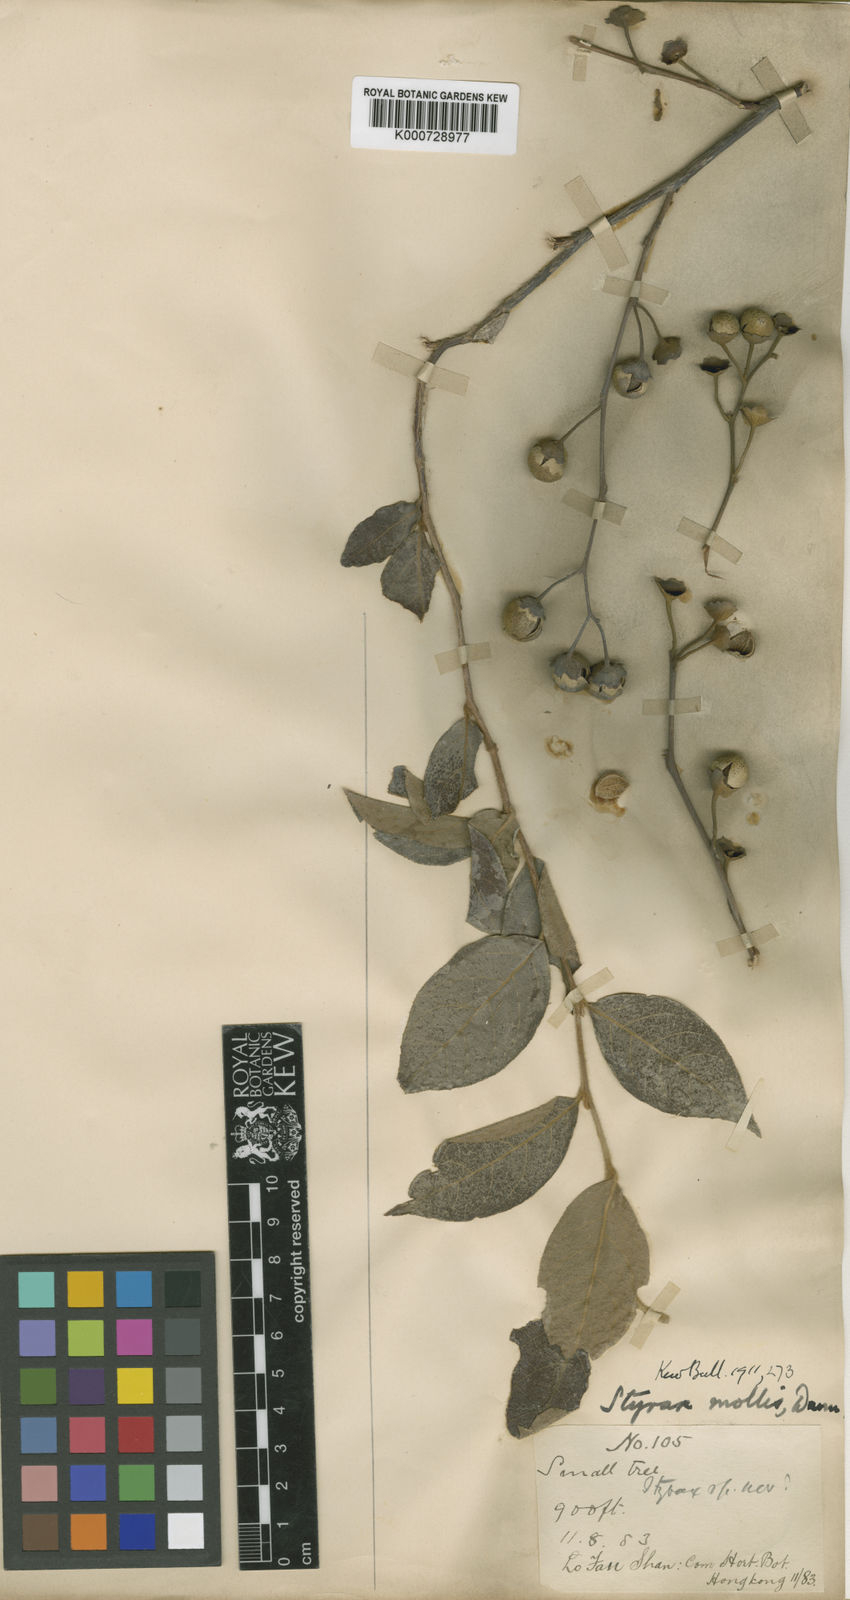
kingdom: Plantae
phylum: Tracheophyta
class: Magnoliopsida
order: Ericales
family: Styracaceae
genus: Styrax
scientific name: Styrax confusus
